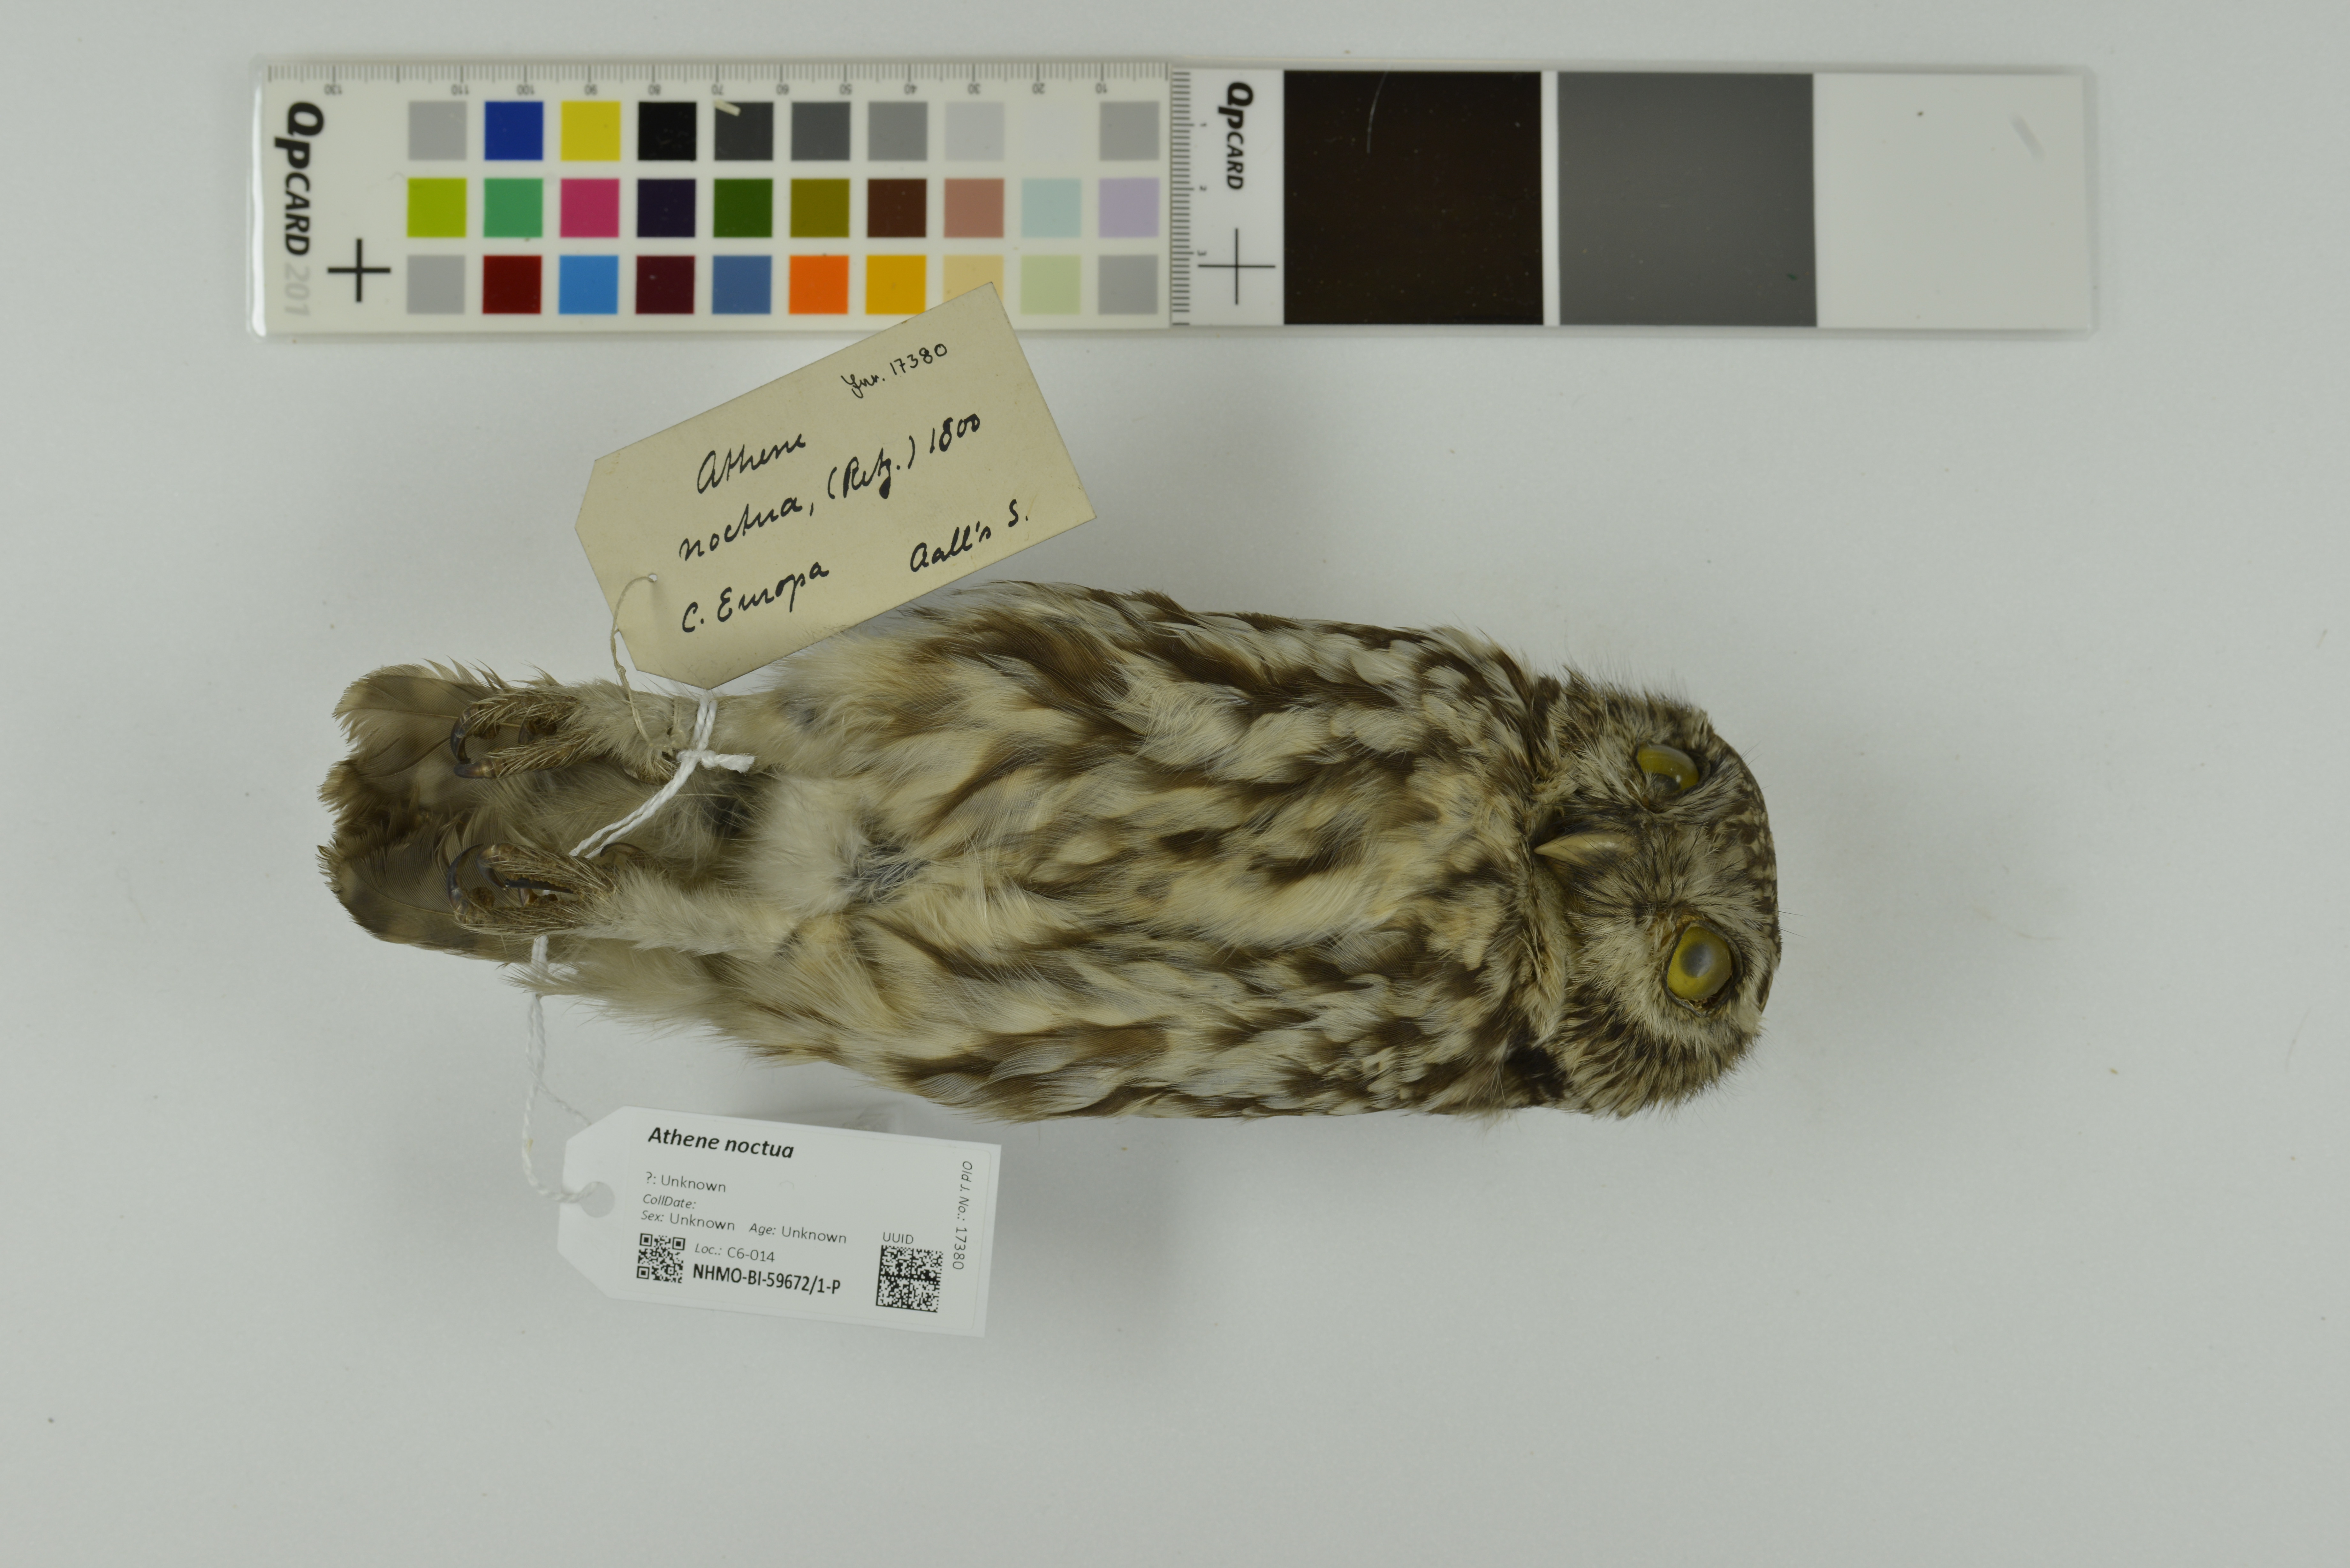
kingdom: Animalia
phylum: Chordata
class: Aves
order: Strigiformes
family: Strigidae
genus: Athene
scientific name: Athene noctua
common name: Little owl
